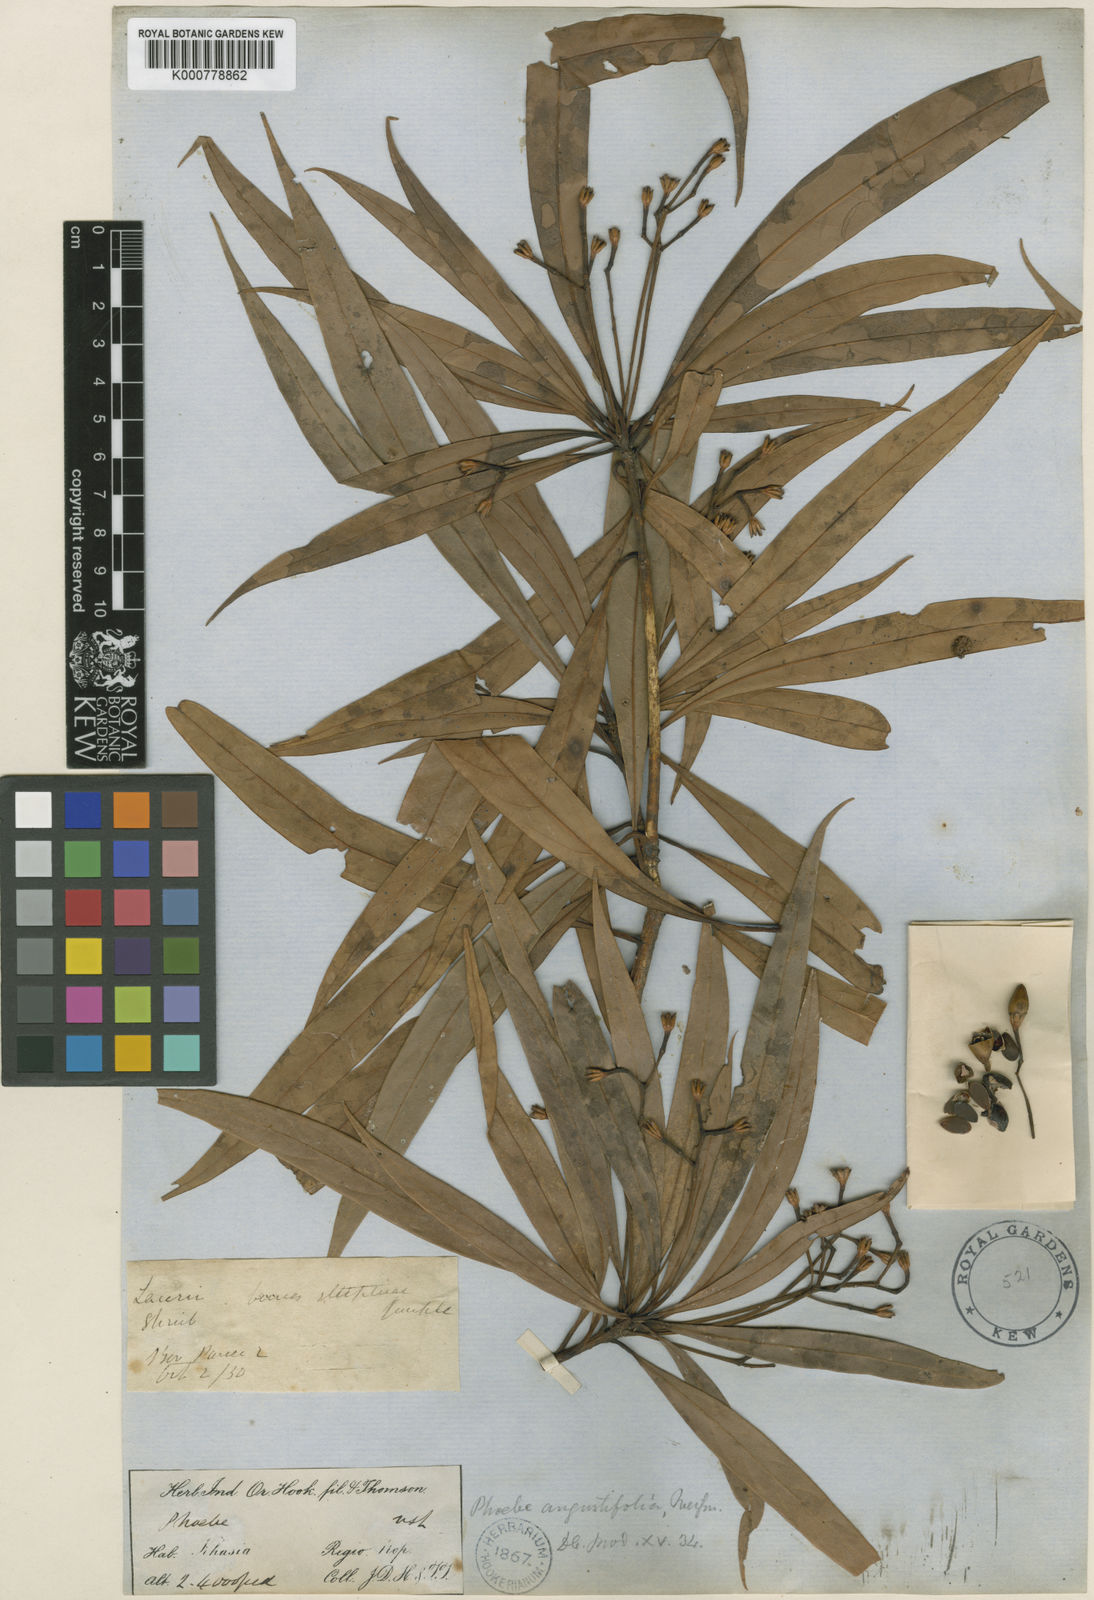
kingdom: Plantae
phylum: Tracheophyta
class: Magnoliopsida
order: Laurales
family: Lauraceae
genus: Phoebe
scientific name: Phoebe angustifolia
